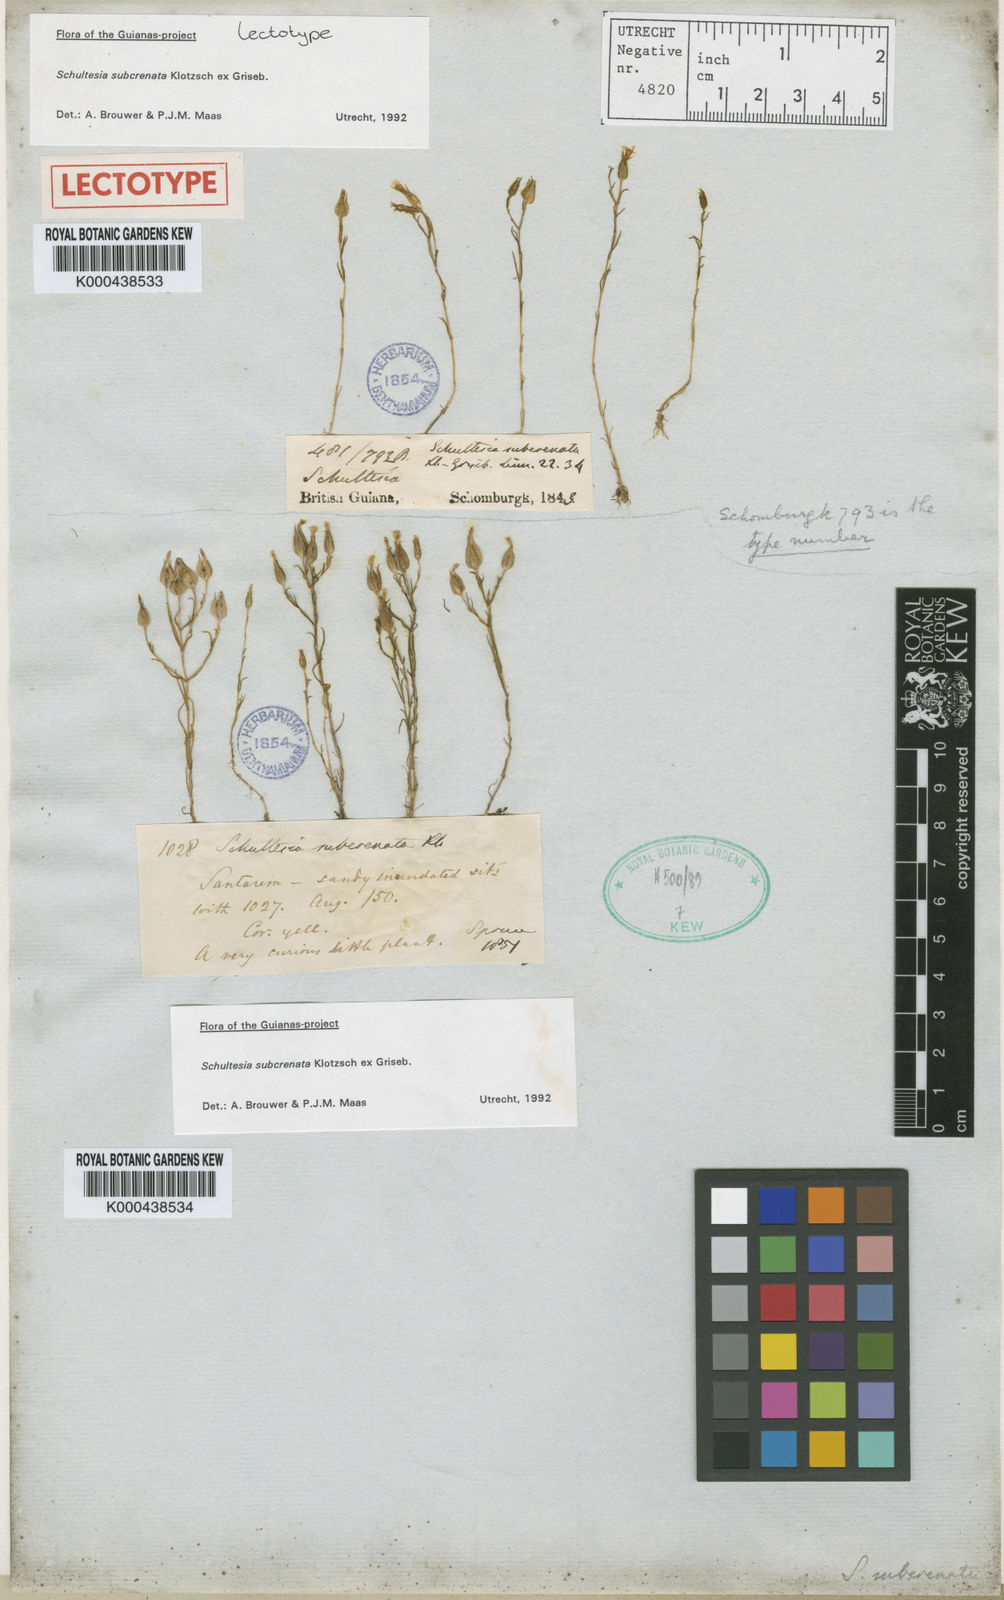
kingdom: Plantae
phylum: Tracheophyta
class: Magnoliopsida
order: Gentianales
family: Gentianaceae
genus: Schultesia
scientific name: Schultesia subcrenata
